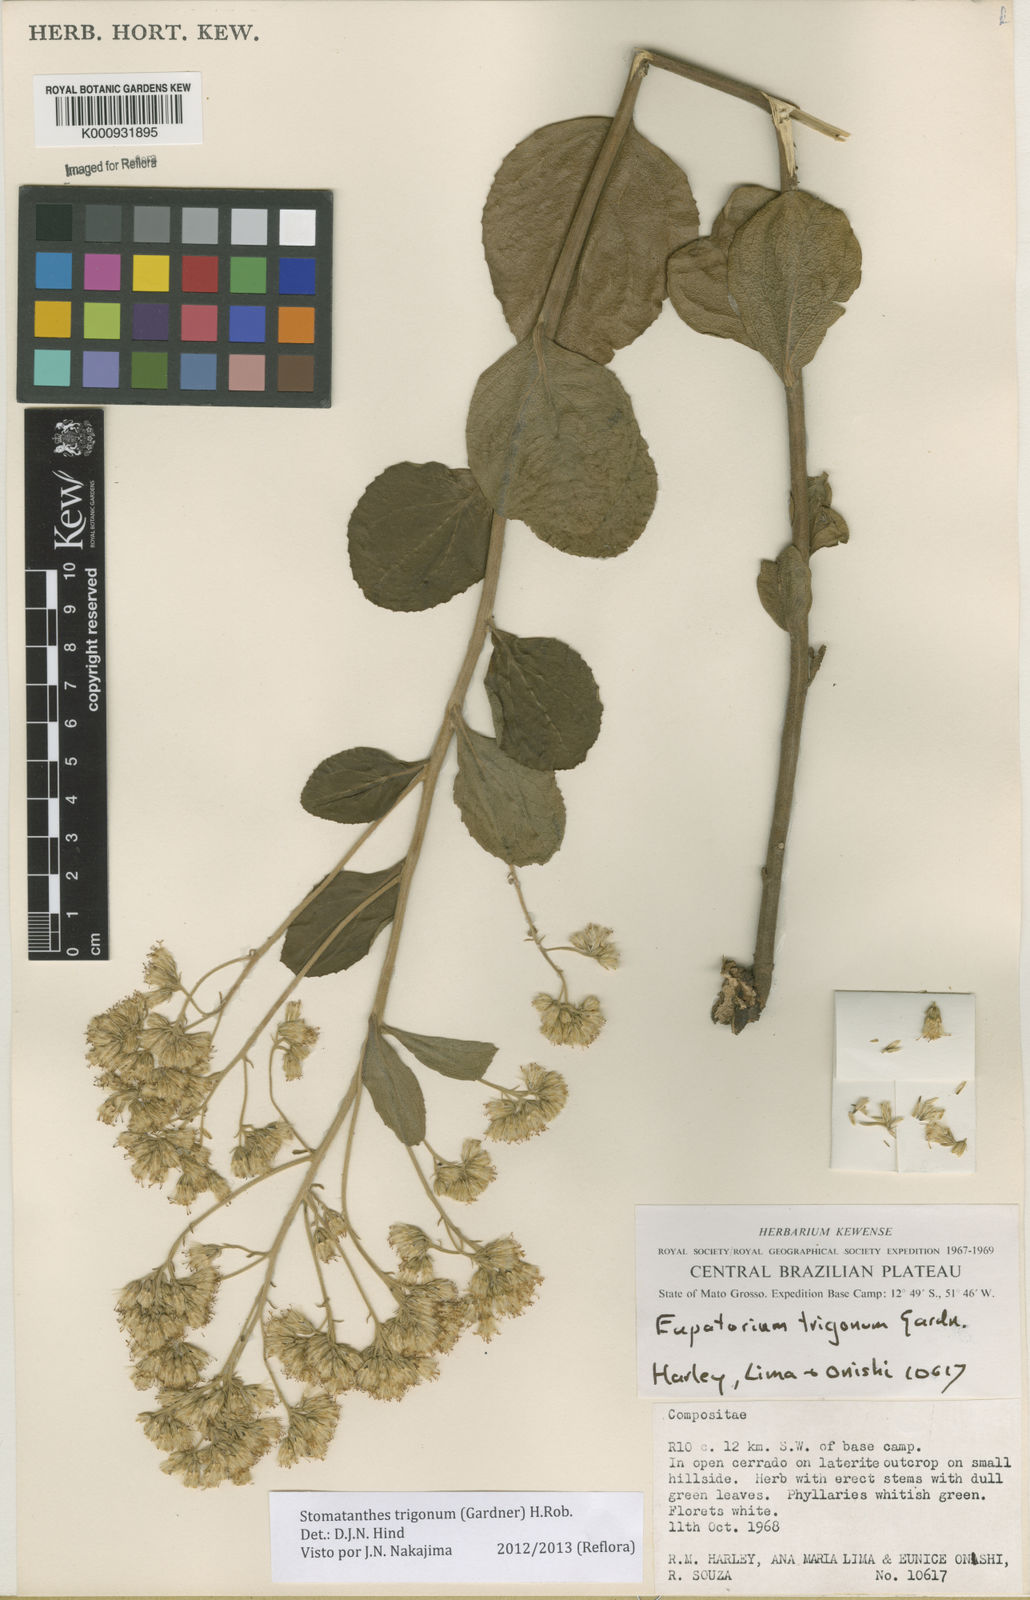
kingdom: Plantae
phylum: Tracheophyta
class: Magnoliopsida
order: Asterales
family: Asteraceae
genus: Stomatanthes
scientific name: Stomatanthes trigonus
